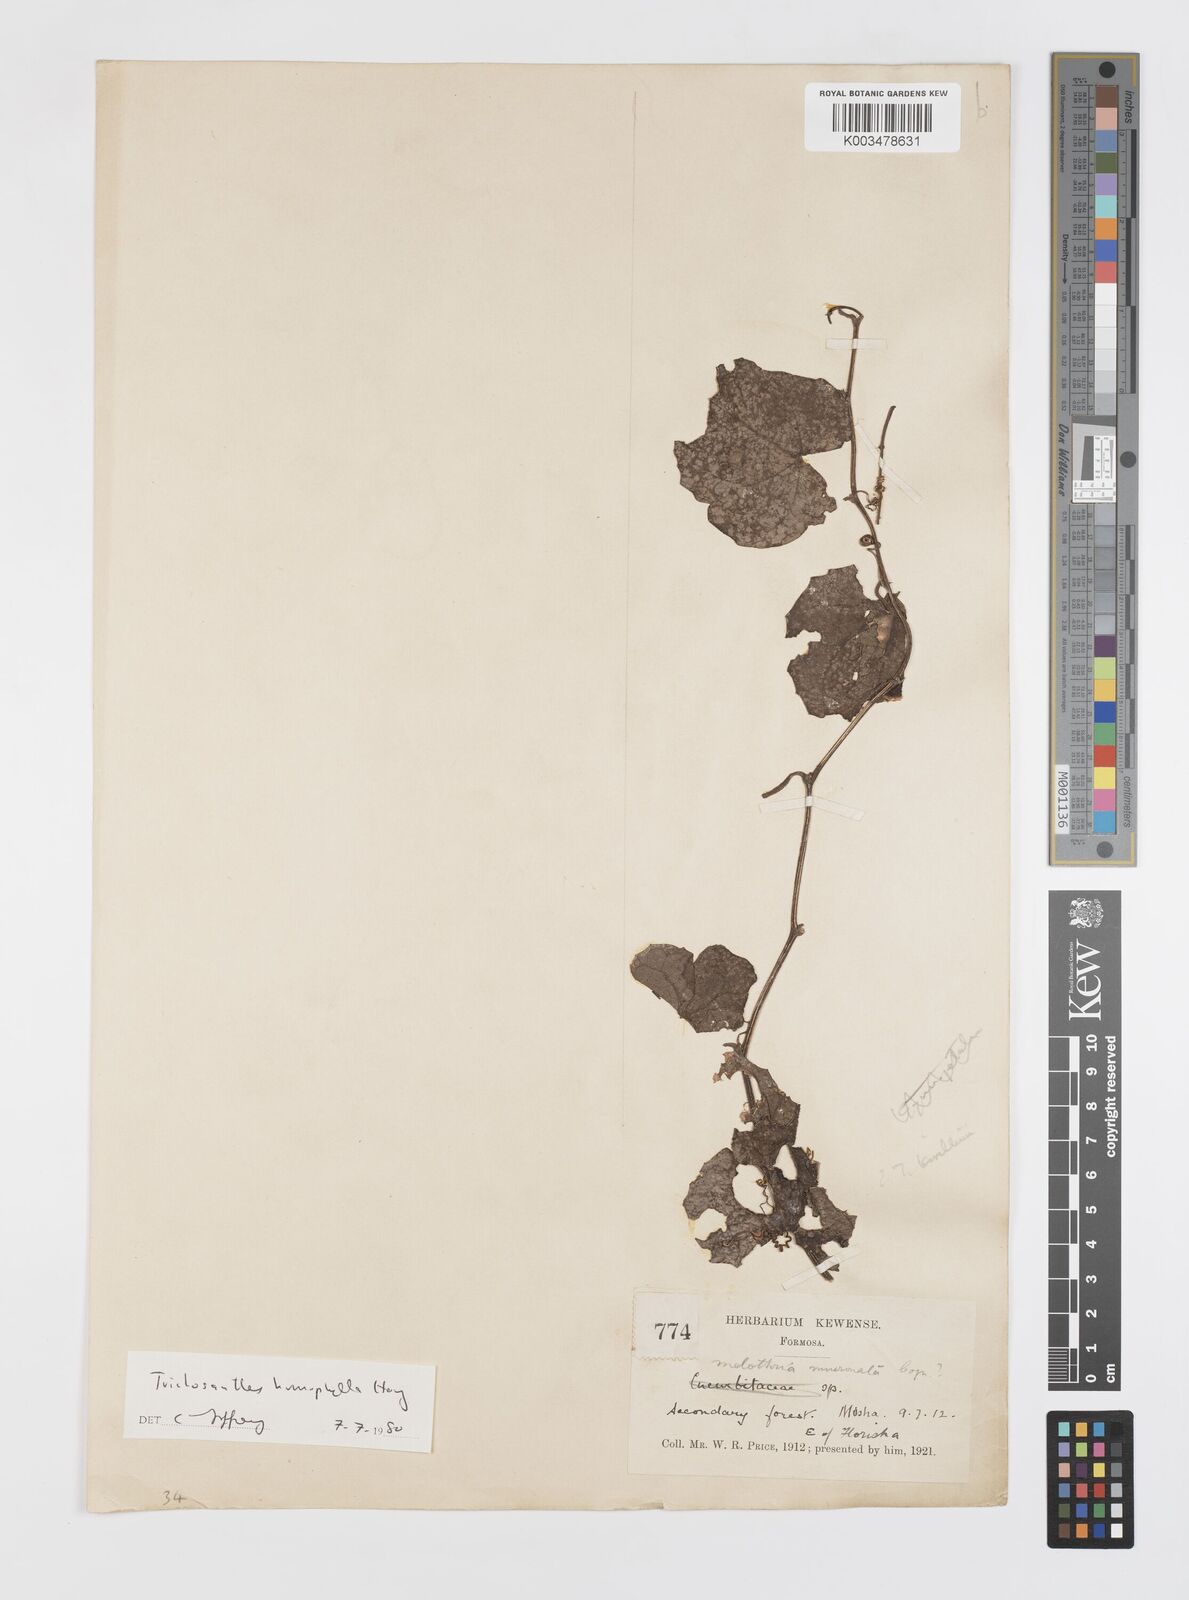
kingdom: Plantae
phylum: Tracheophyta
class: Magnoliopsida
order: Cucurbitales
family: Cucurbitaceae
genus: Trichosanthes
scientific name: Trichosanthes homophylla
